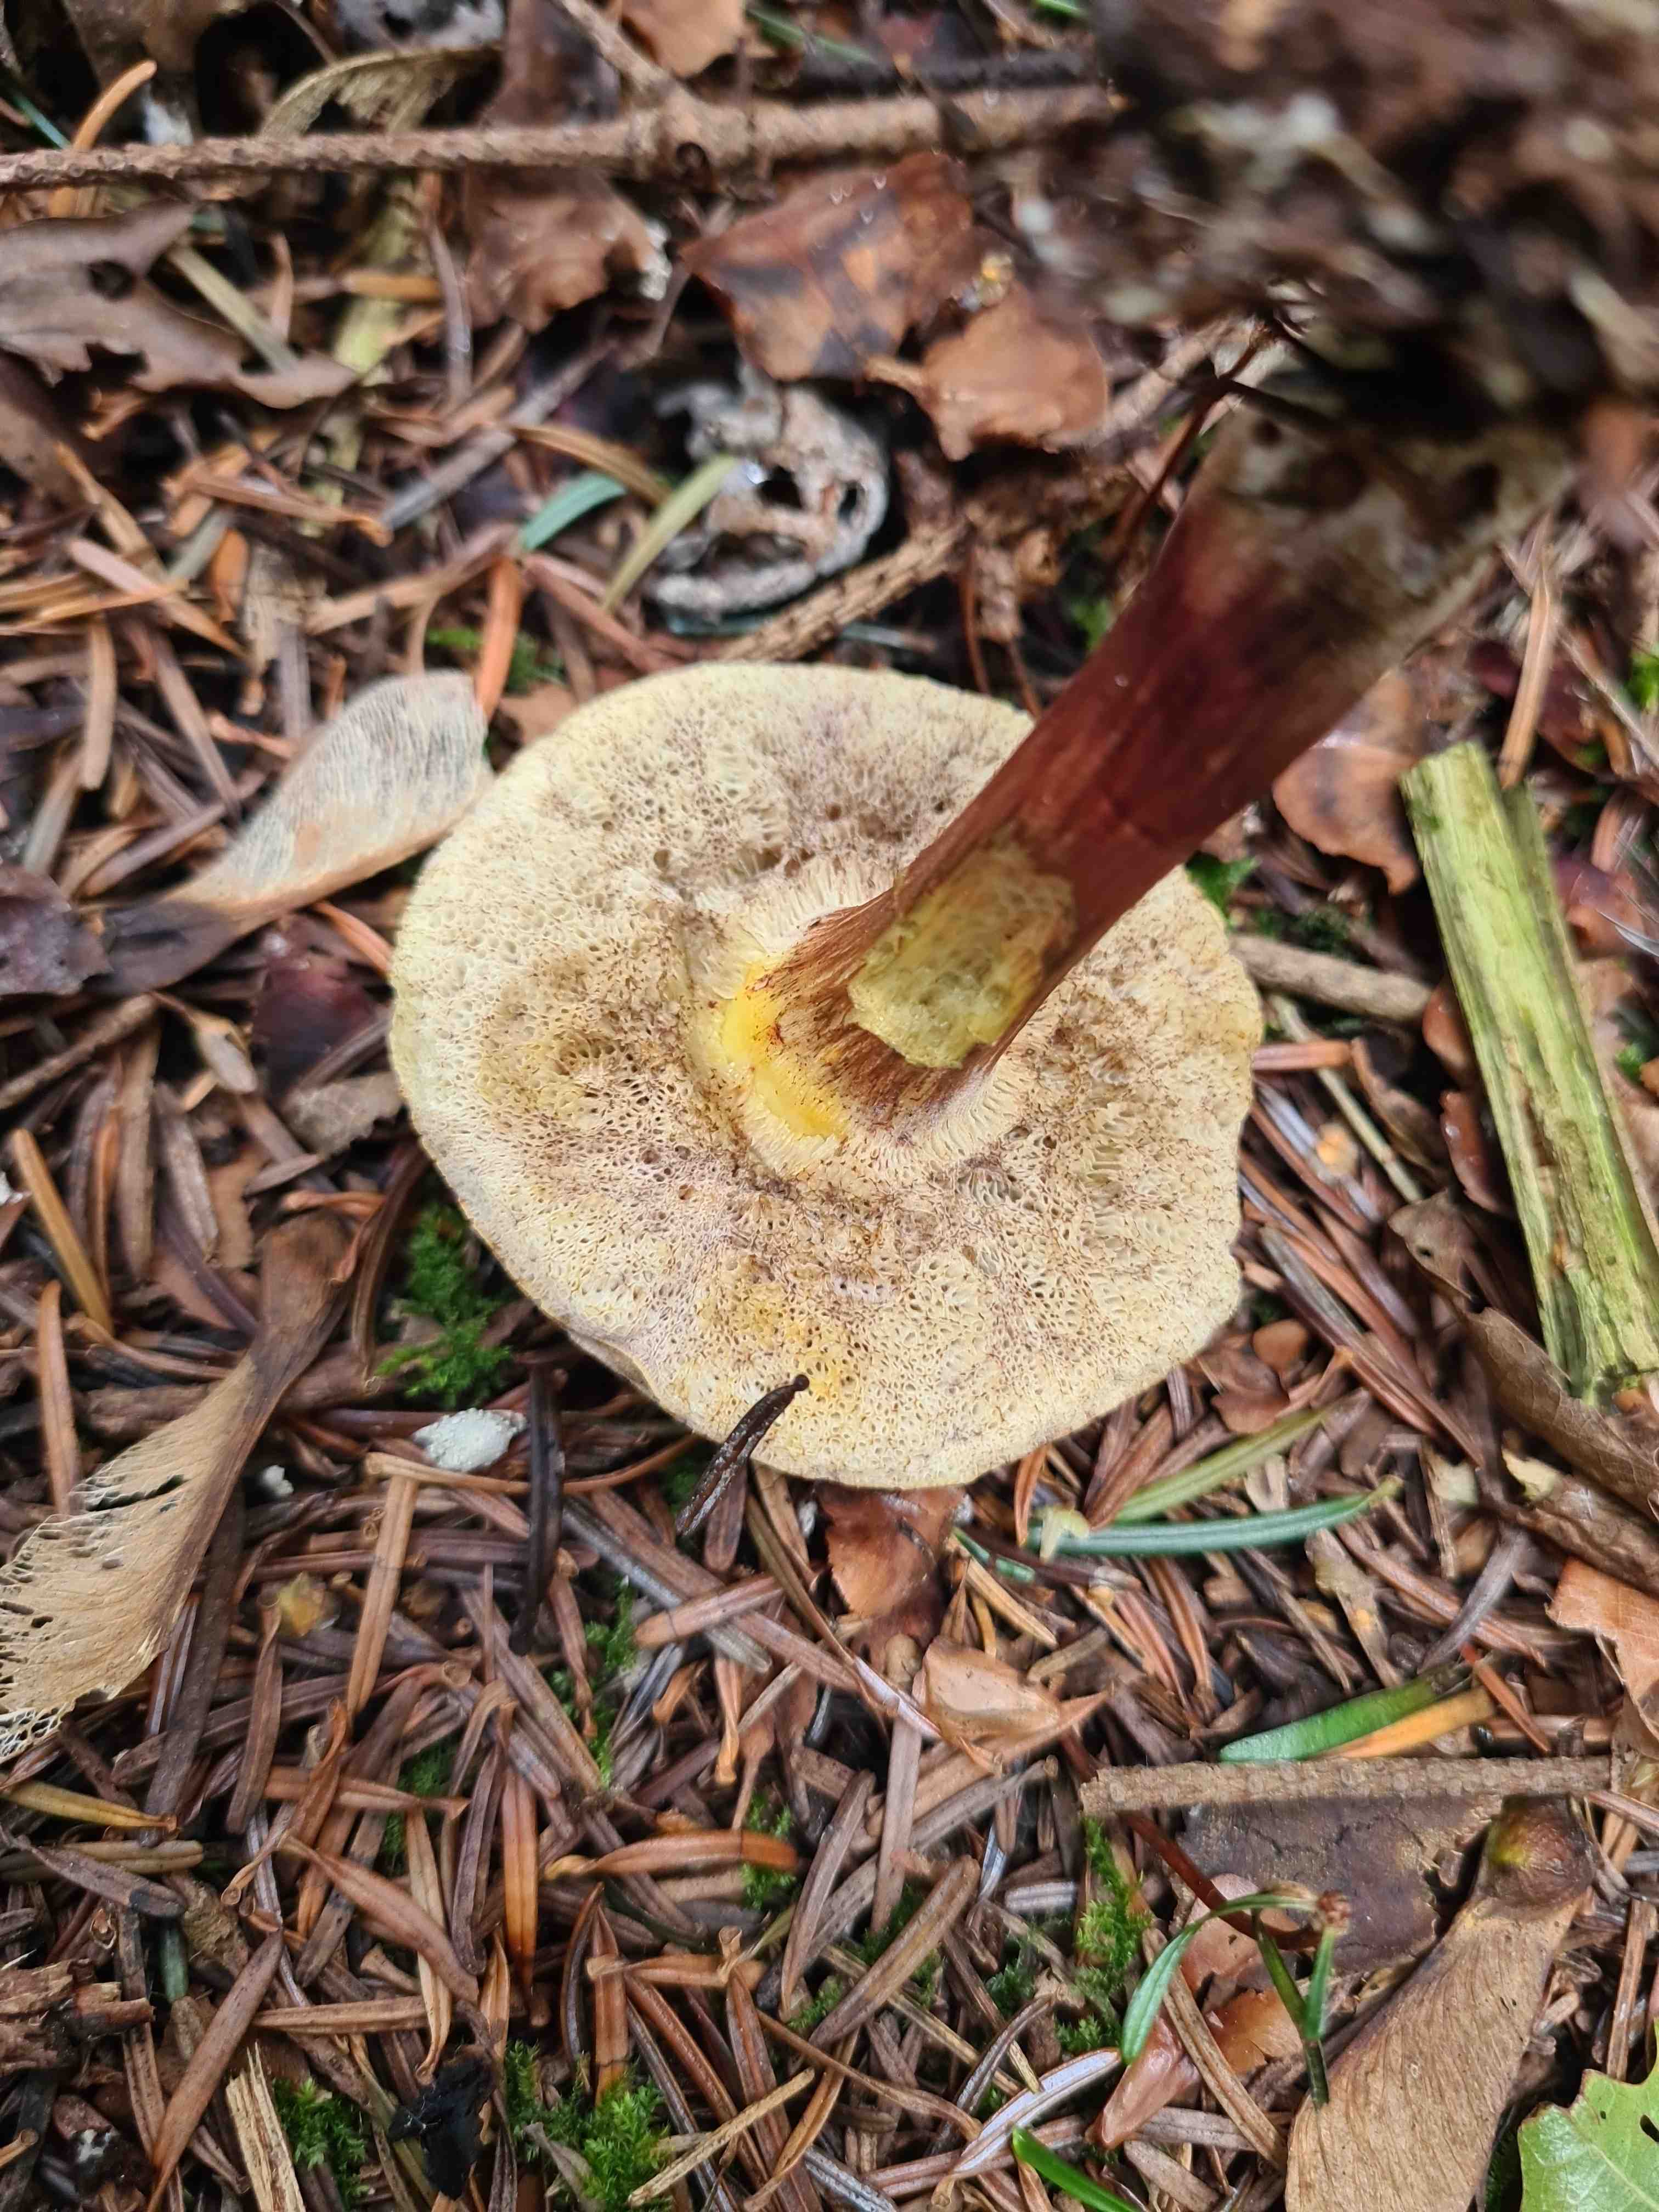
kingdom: Fungi
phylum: Basidiomycota
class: Agaricomycetes
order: Boletales
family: Boletaceae
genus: Xerocomellus
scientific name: Xerocomellus
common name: dværgrørhat
